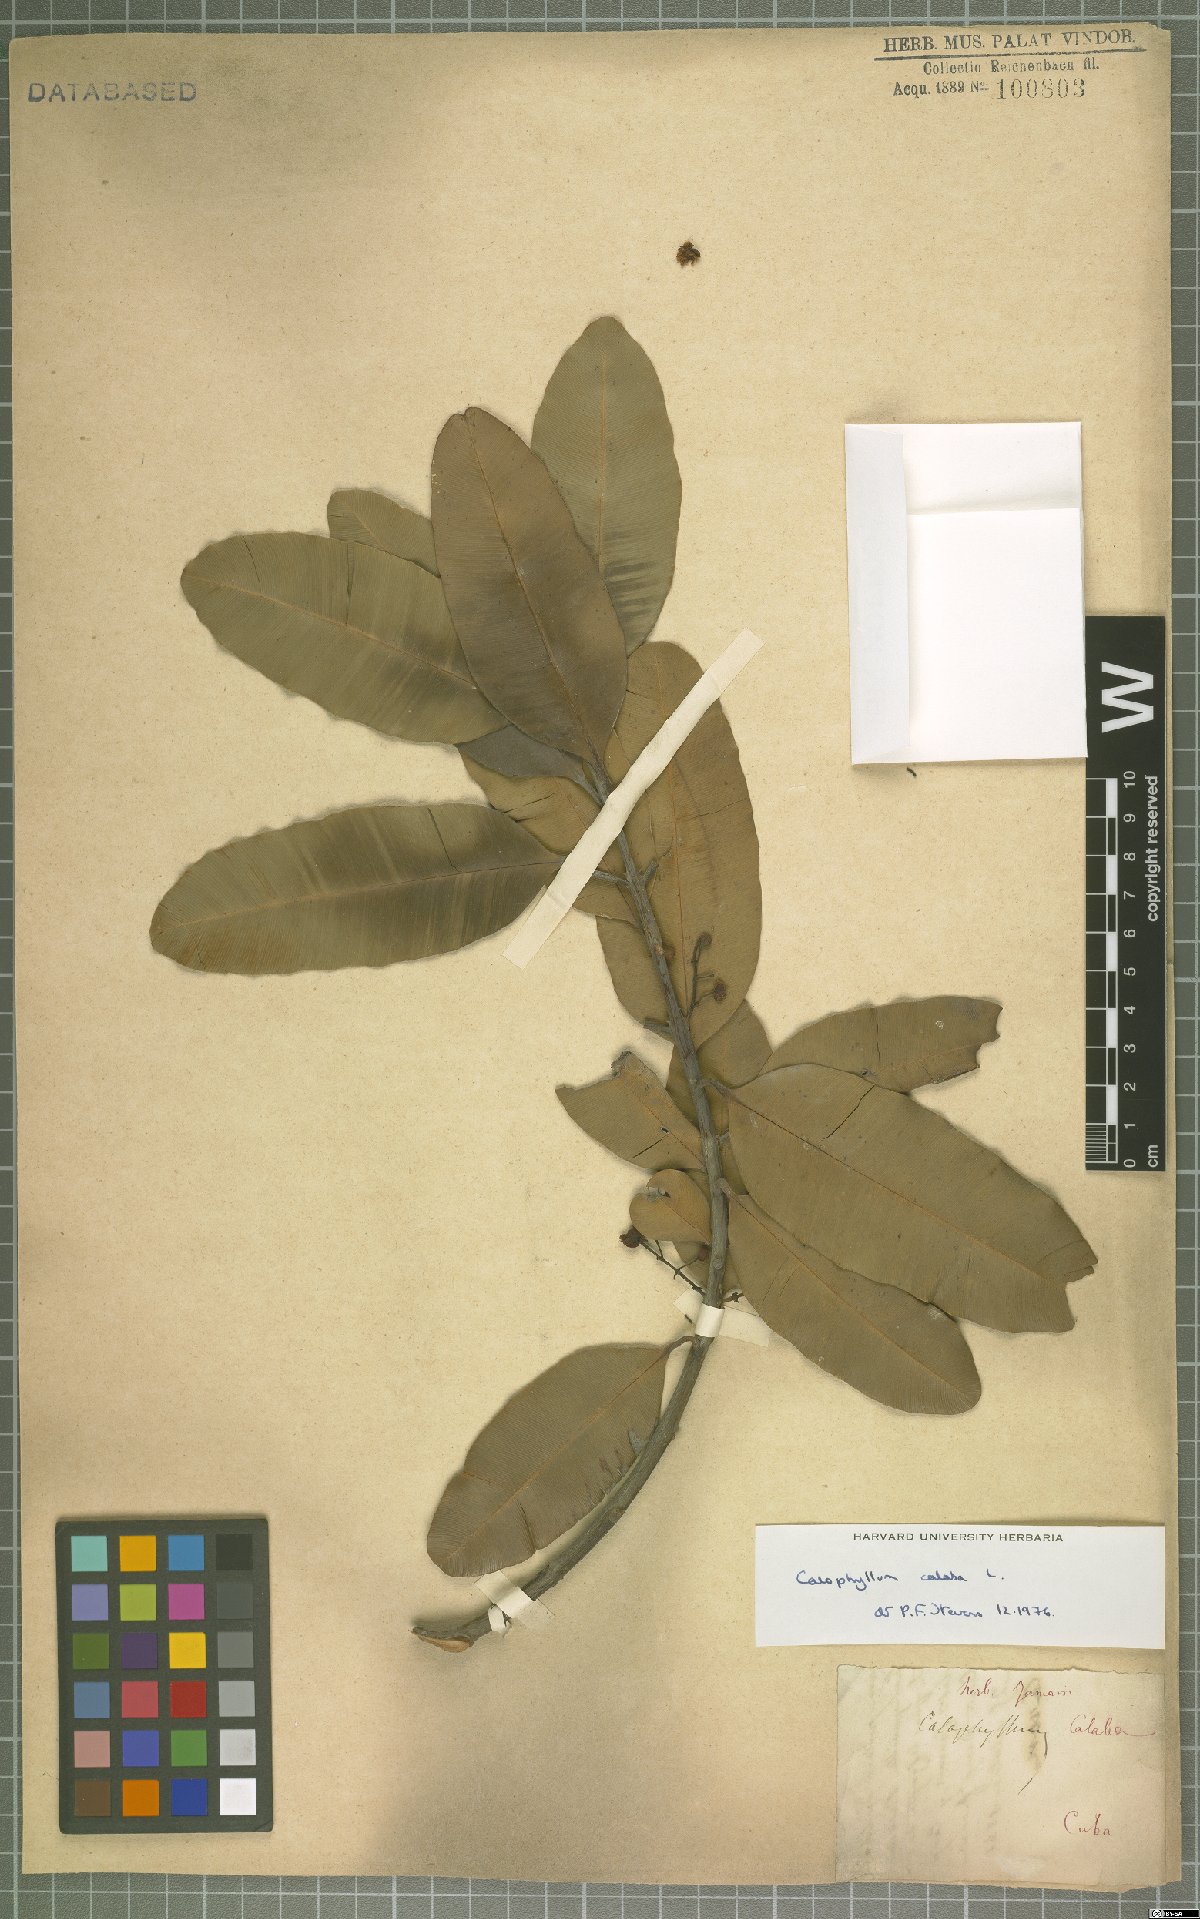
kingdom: Plantae
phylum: Tracheophyta
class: Magnoliopsida
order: Malpighiales
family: Calophyllaceae
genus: Calophyllum
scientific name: Calophyllum calaba
